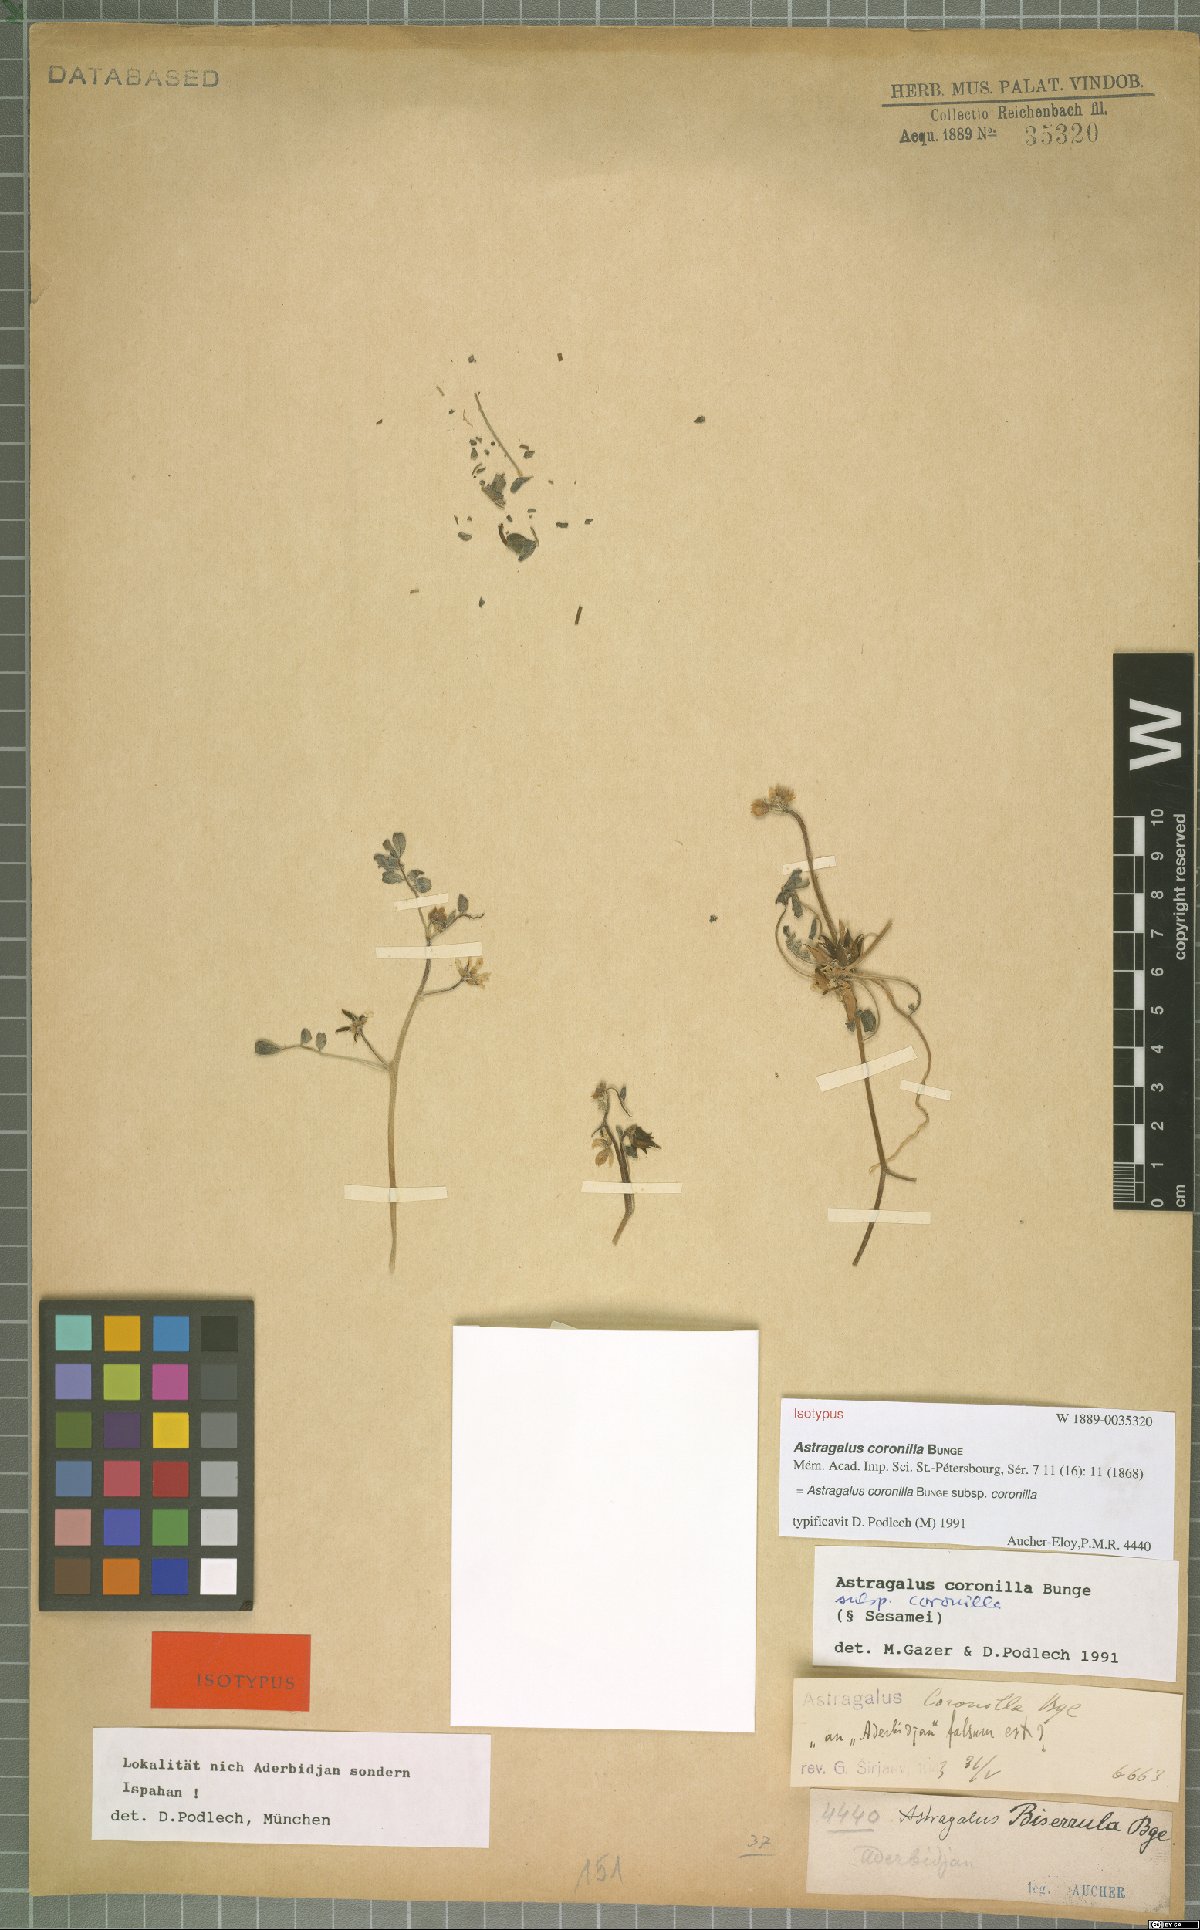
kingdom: Plantae
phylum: Tracheophyta
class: Magnoliopsida
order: Fabales
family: Fabaceae
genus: Astragalus
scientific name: Astragalus coronilla
